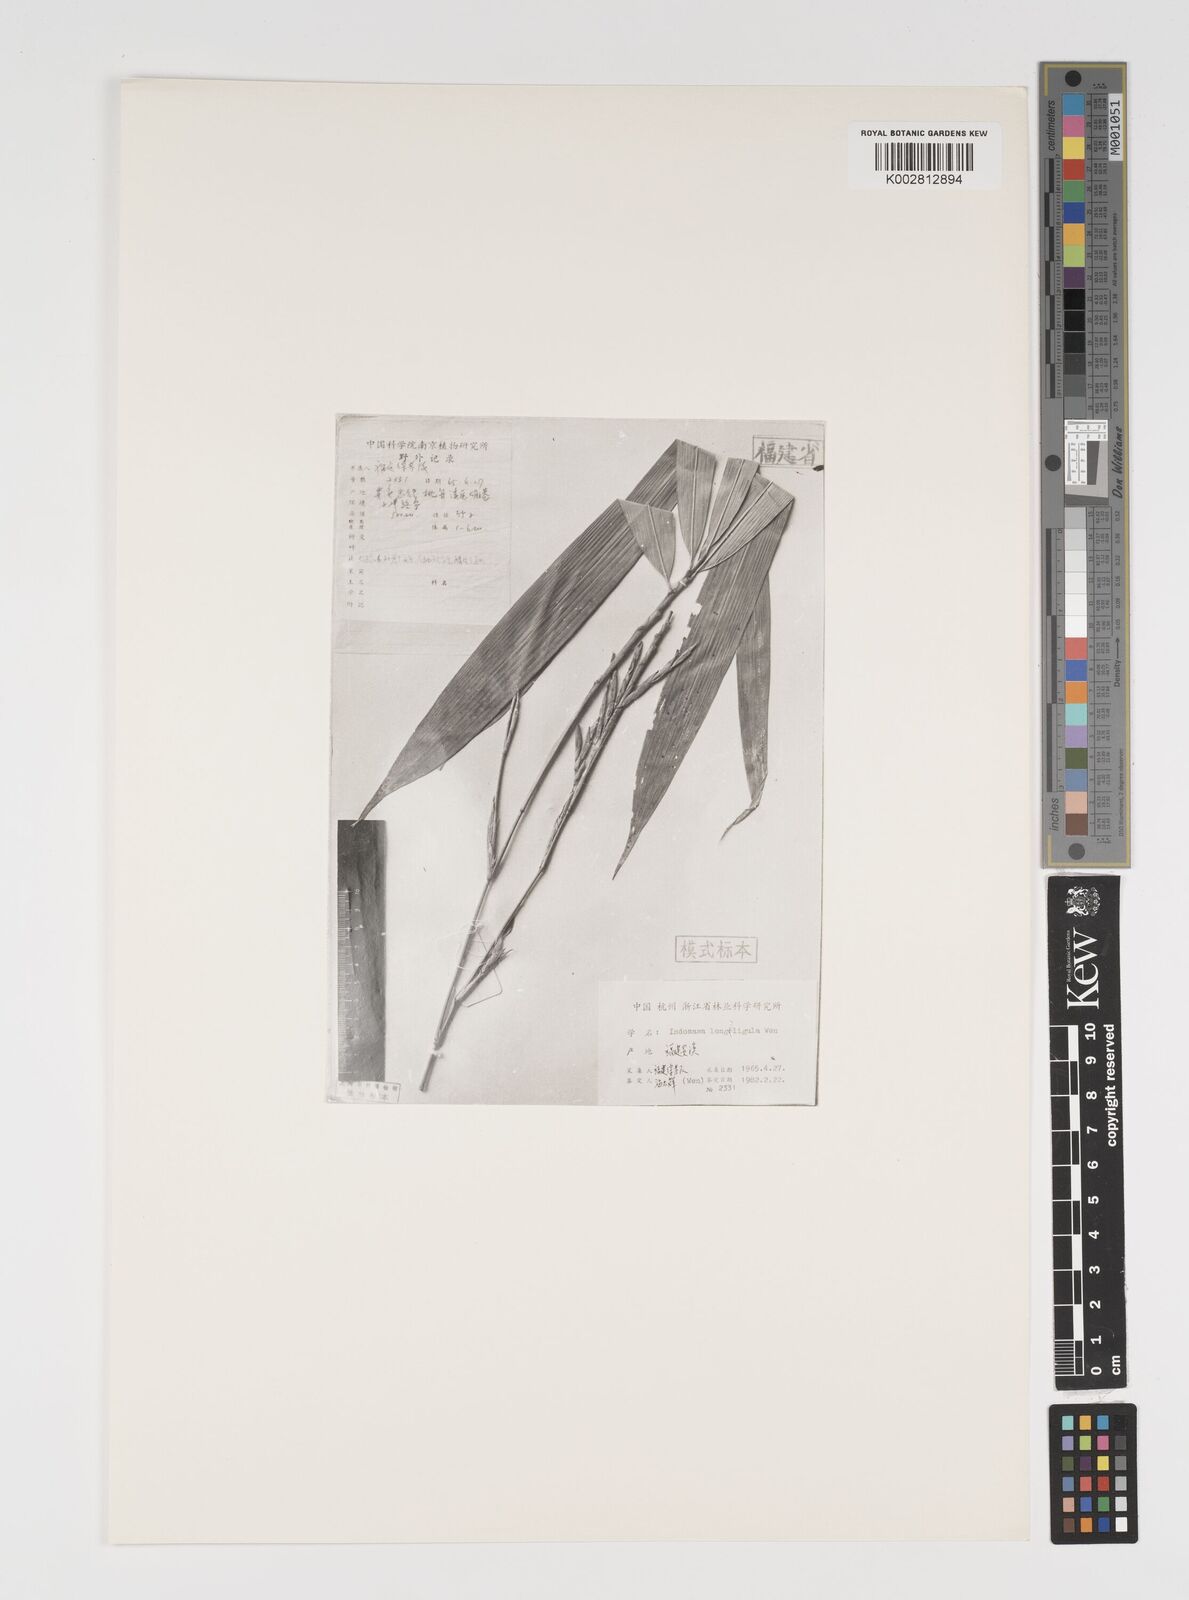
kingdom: Plantae
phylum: Tracheophyta
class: Liliopsida
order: Poales
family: Poaceae
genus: Acidosasa
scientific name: Acidosasa notata
